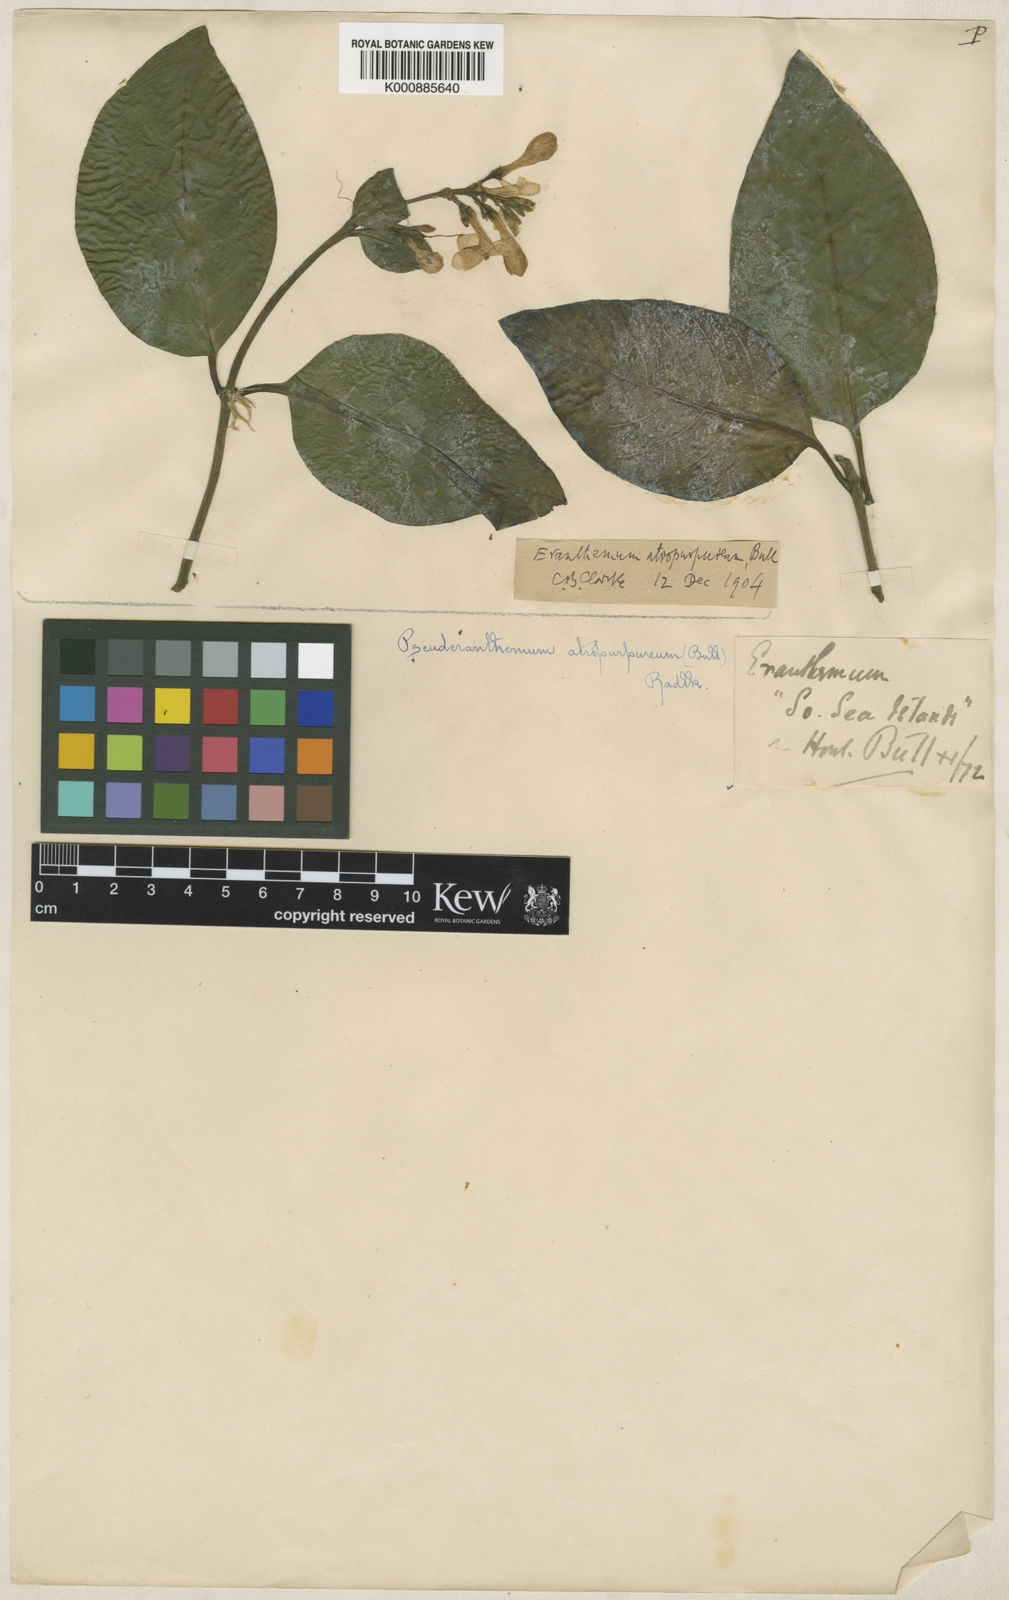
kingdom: Plantae
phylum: Tracheophyta
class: Magnoliopsida
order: Lamiales
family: Acanthaceae
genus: Pseuderanthemum
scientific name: Pseuderanthemum maculatum
